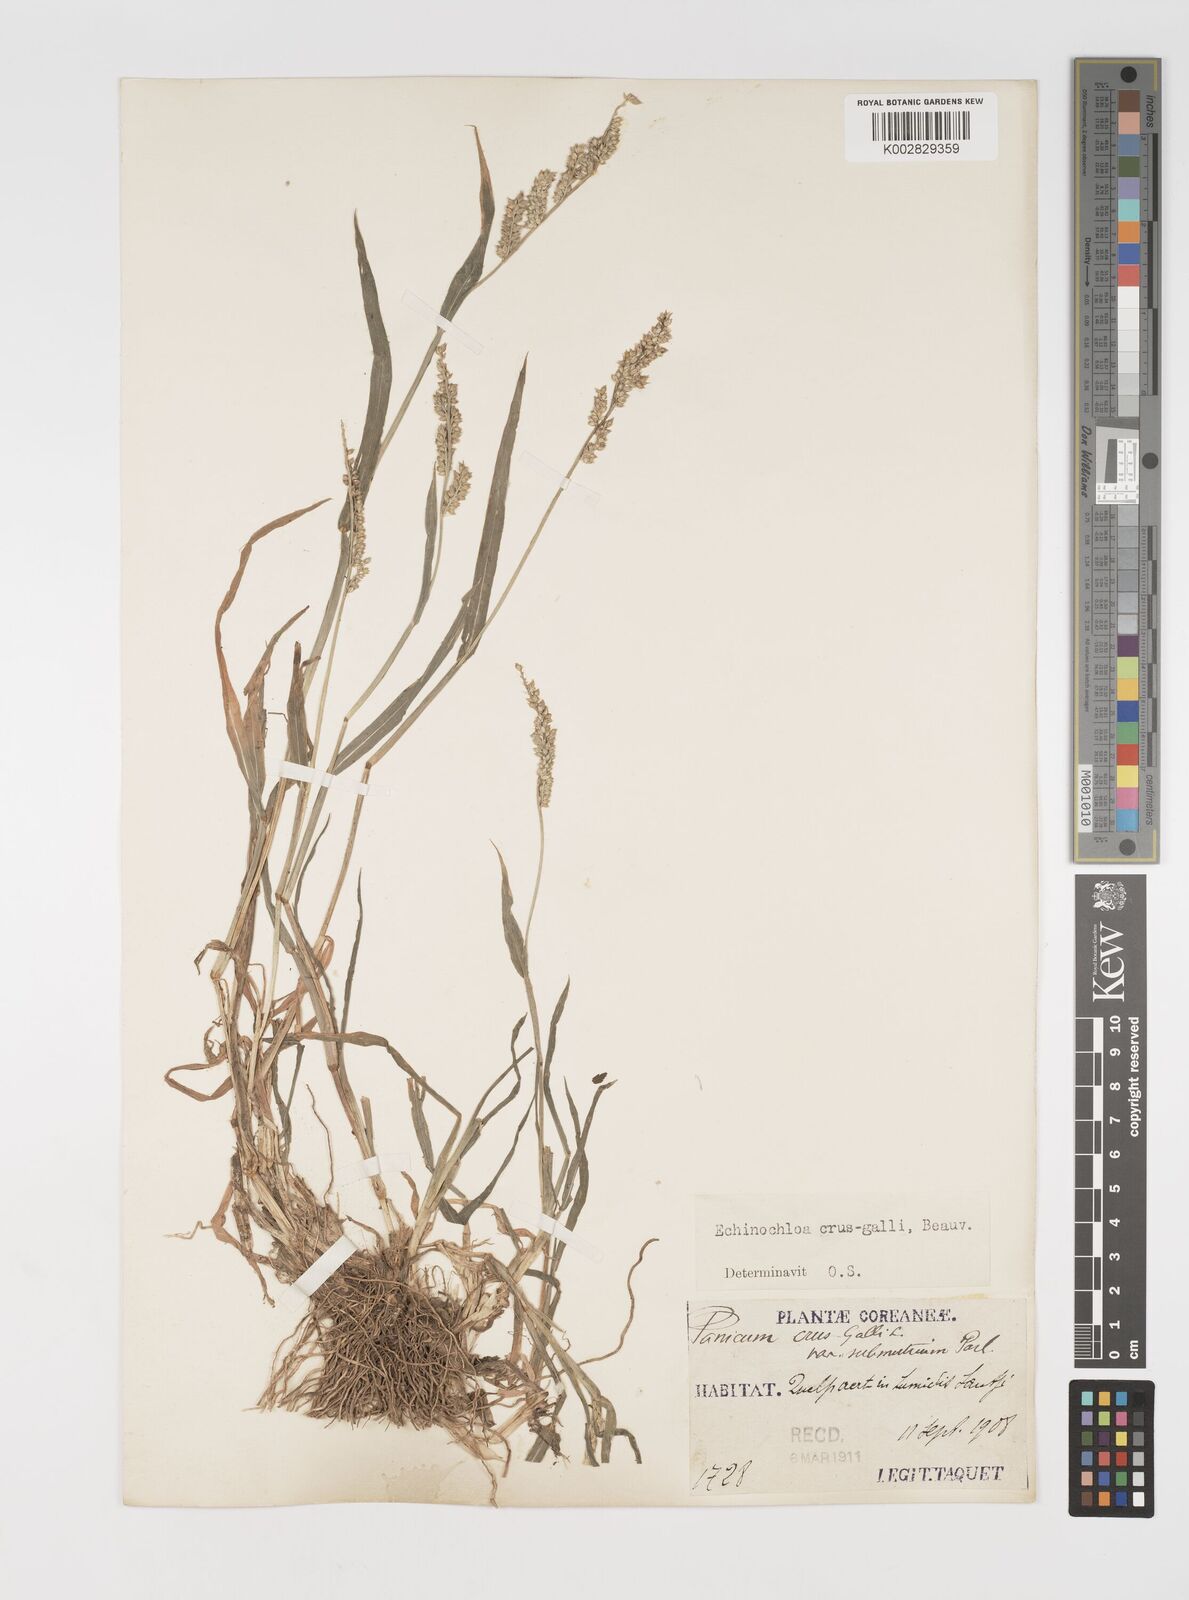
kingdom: Plantae
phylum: Tracheophyta
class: Liliopsida
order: Poales
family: Poaceae
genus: Echinochloa
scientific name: Echinochloa crus-galli
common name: Cockspur
